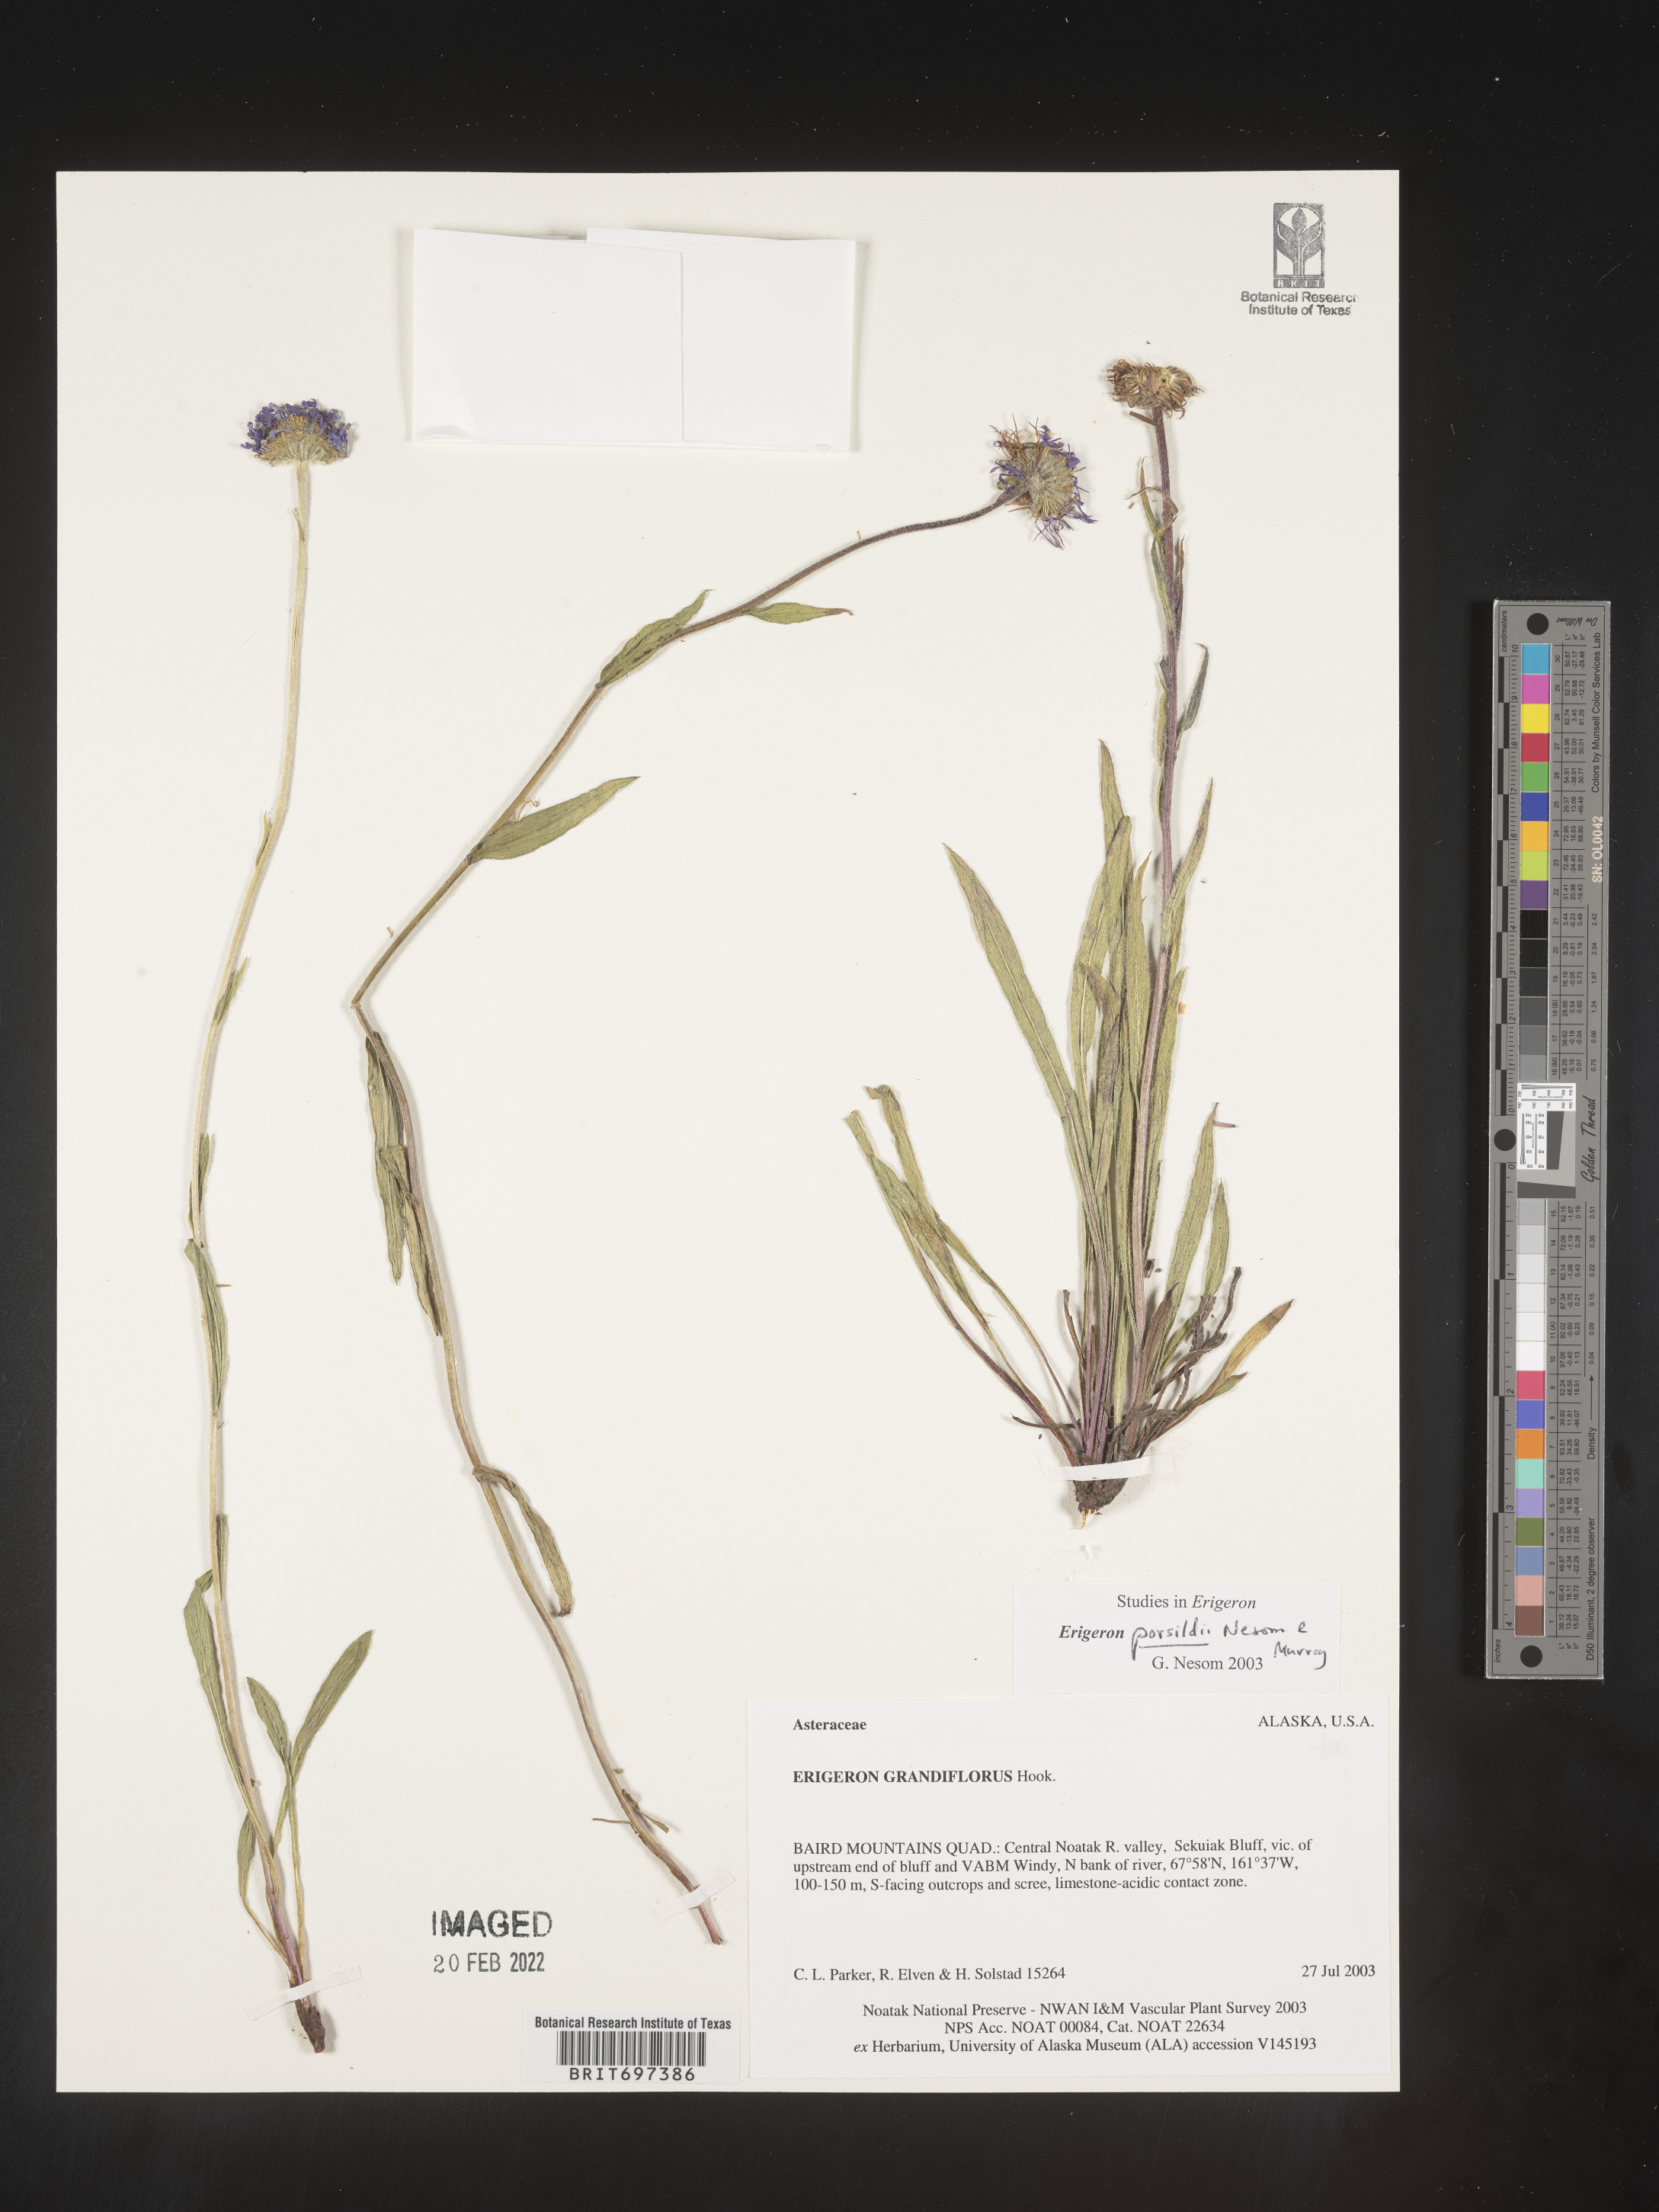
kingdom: Plantae
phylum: Tracheophyta
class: Magnoliopsida
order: Asterales
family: Asteraceae
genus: Erigeron
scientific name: Erigeron porsildii
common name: Porsild's arctic fleabane
